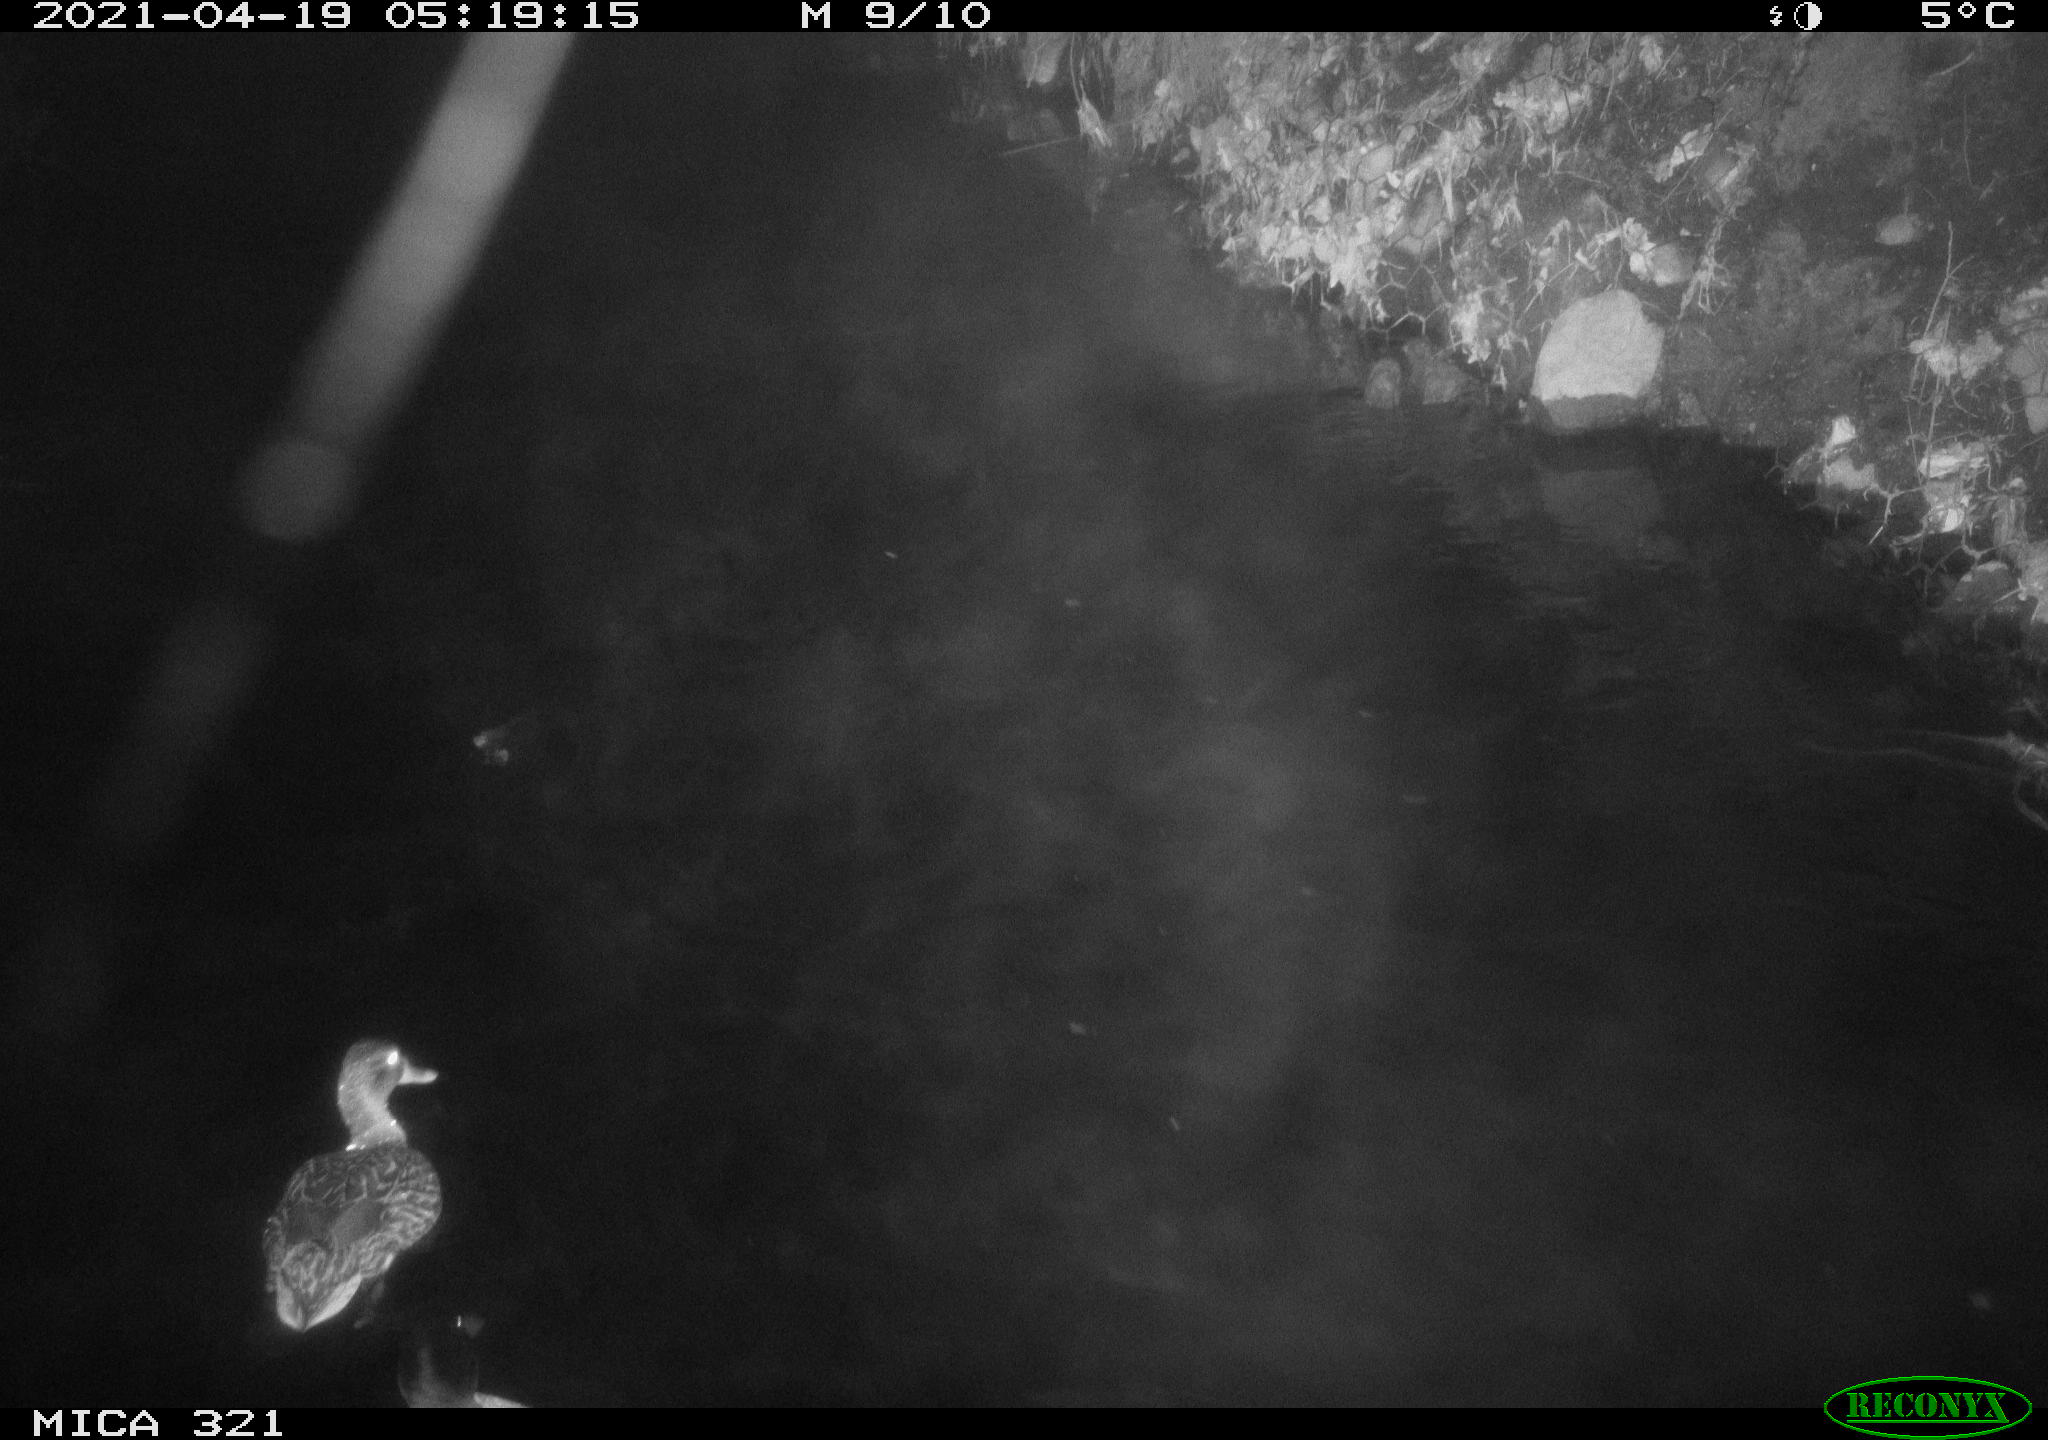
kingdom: Animalia
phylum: Chordata
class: Aves
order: Anseriformes
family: Anatidae
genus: Anas
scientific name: Anas
